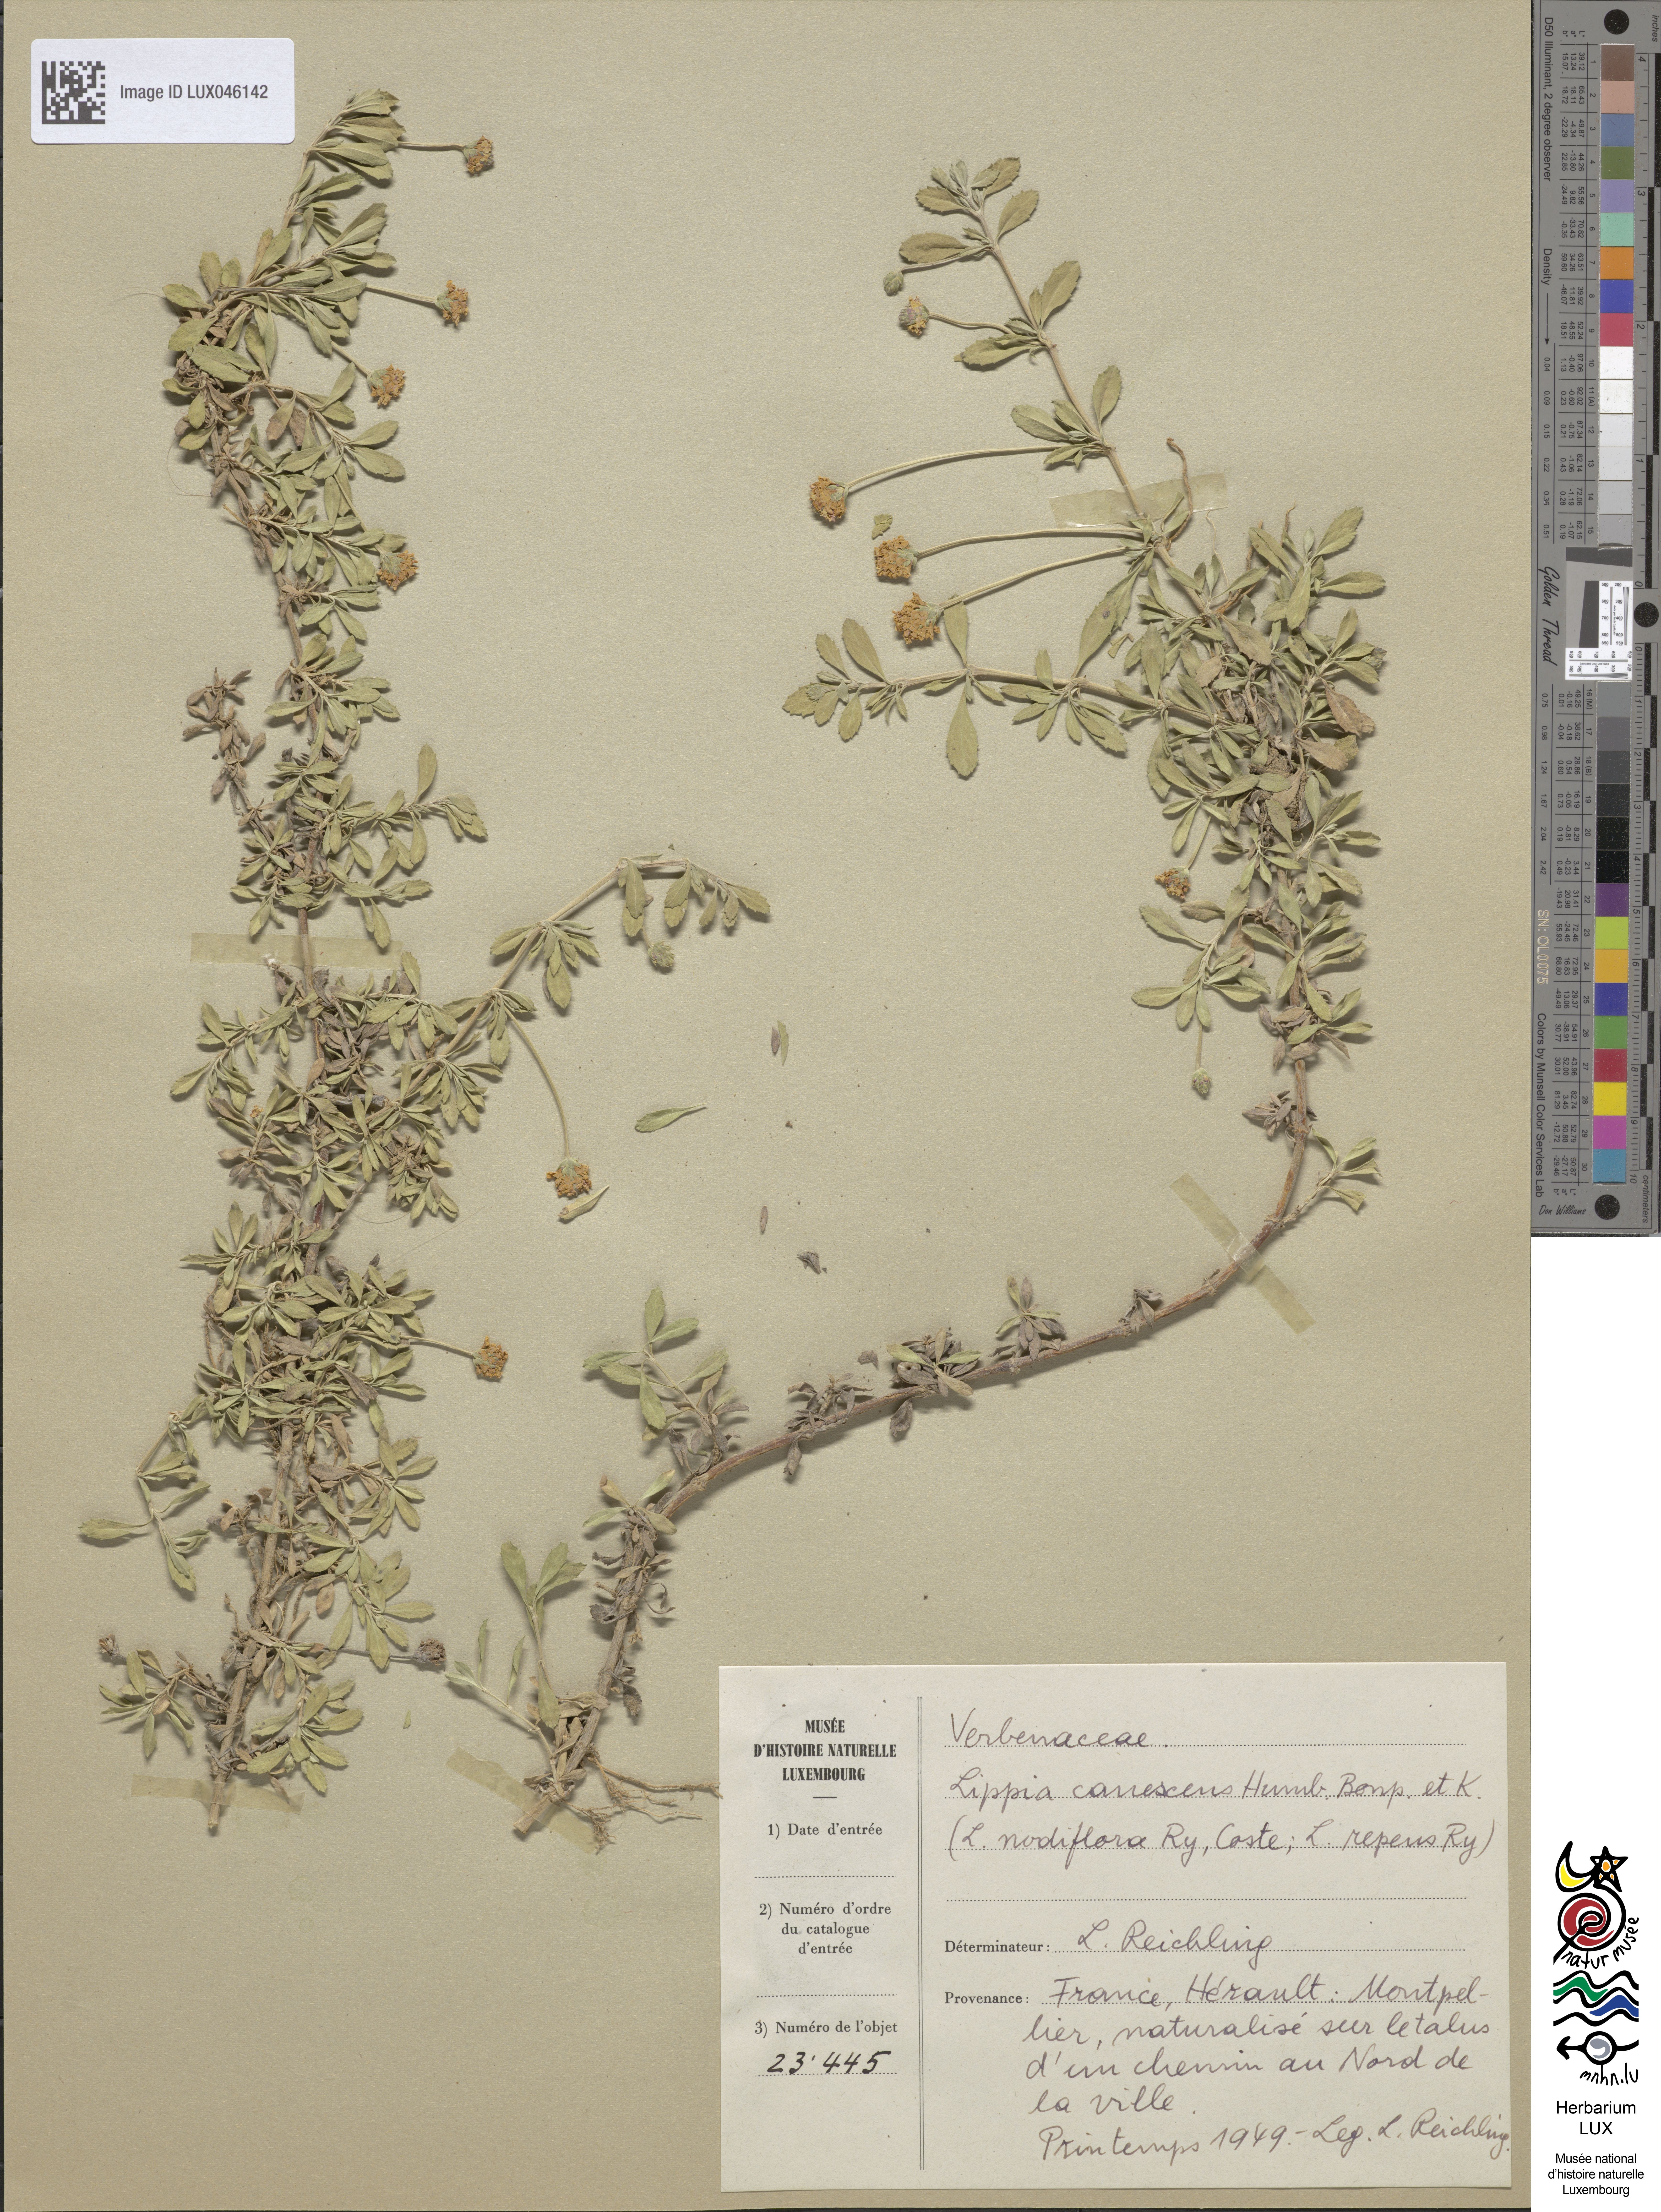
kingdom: Plantae
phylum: Tracheophyta
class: Magnoliopsida
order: Lamiales
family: Verbenaceae
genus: Phyla
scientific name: Phyla nodiflora
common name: Frogfruit
